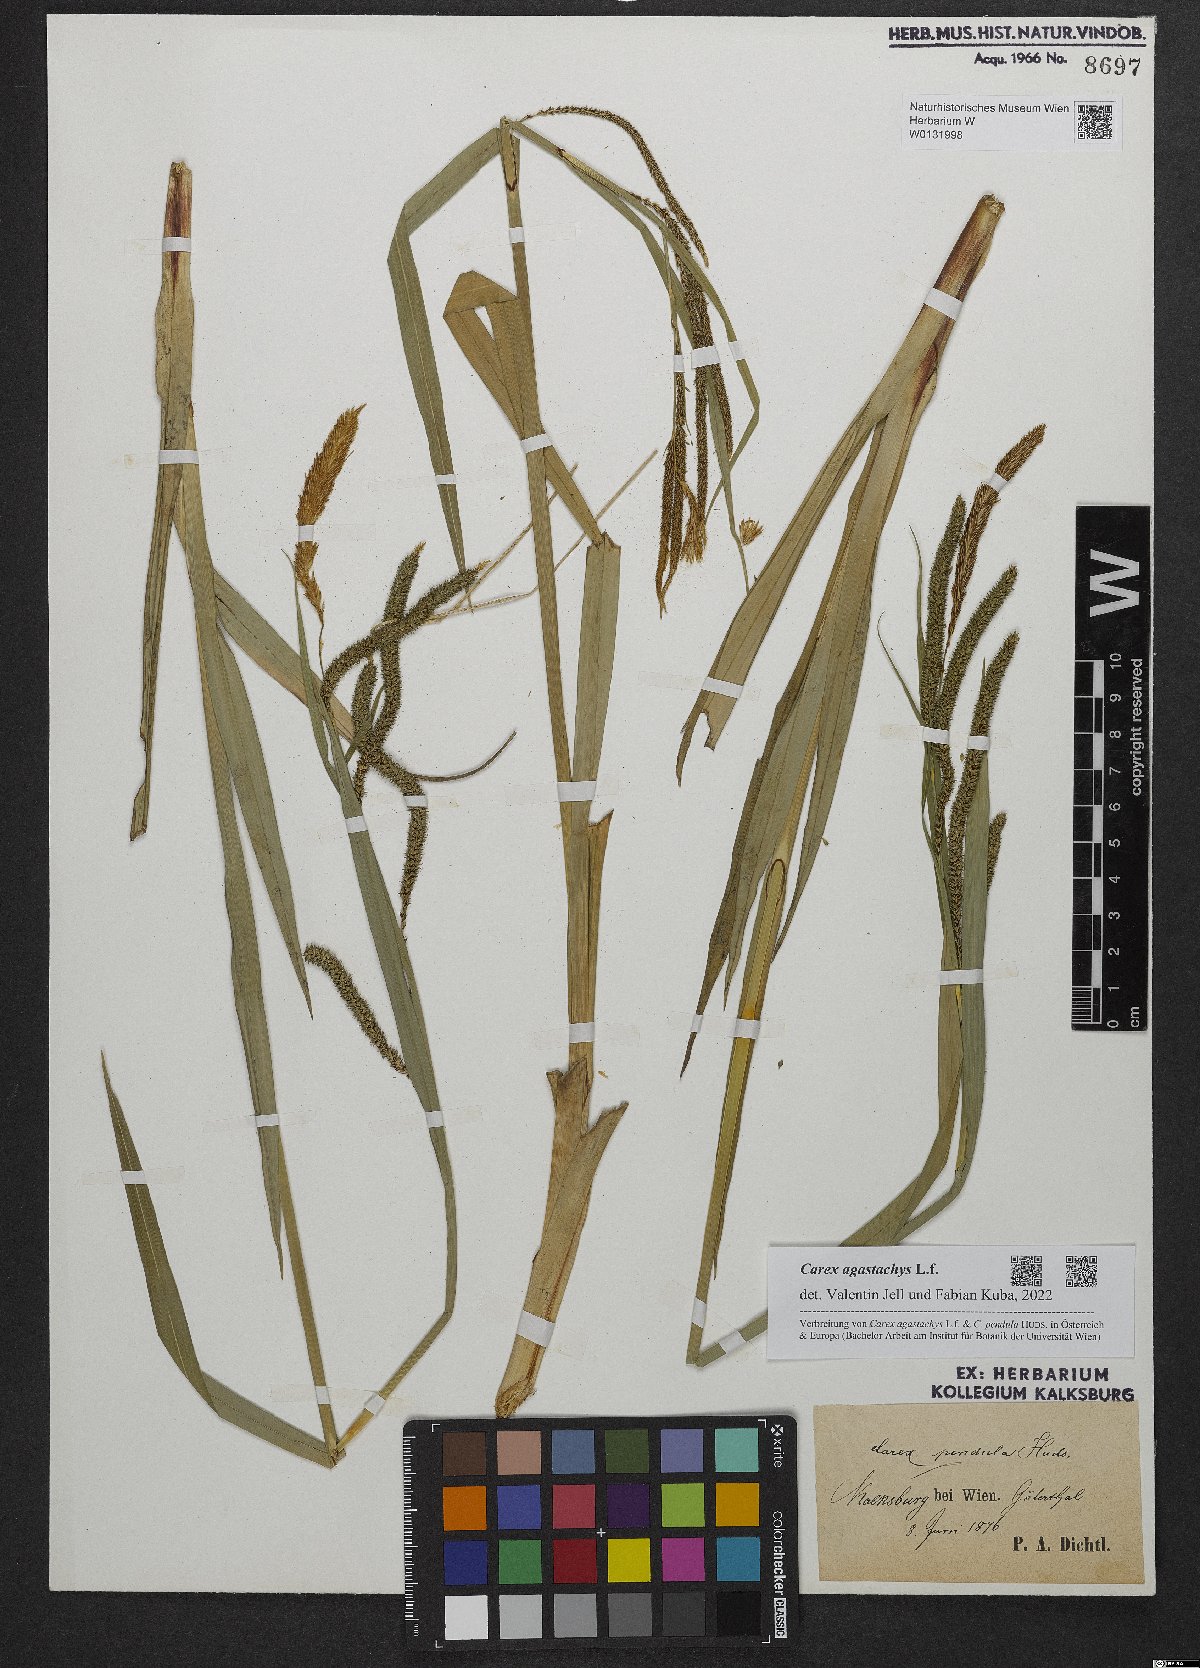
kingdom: Plantae
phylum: Tracheophyta
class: Liliopsida
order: Poales
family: Cyperaceae
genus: Carex
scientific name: Carex agastachys
